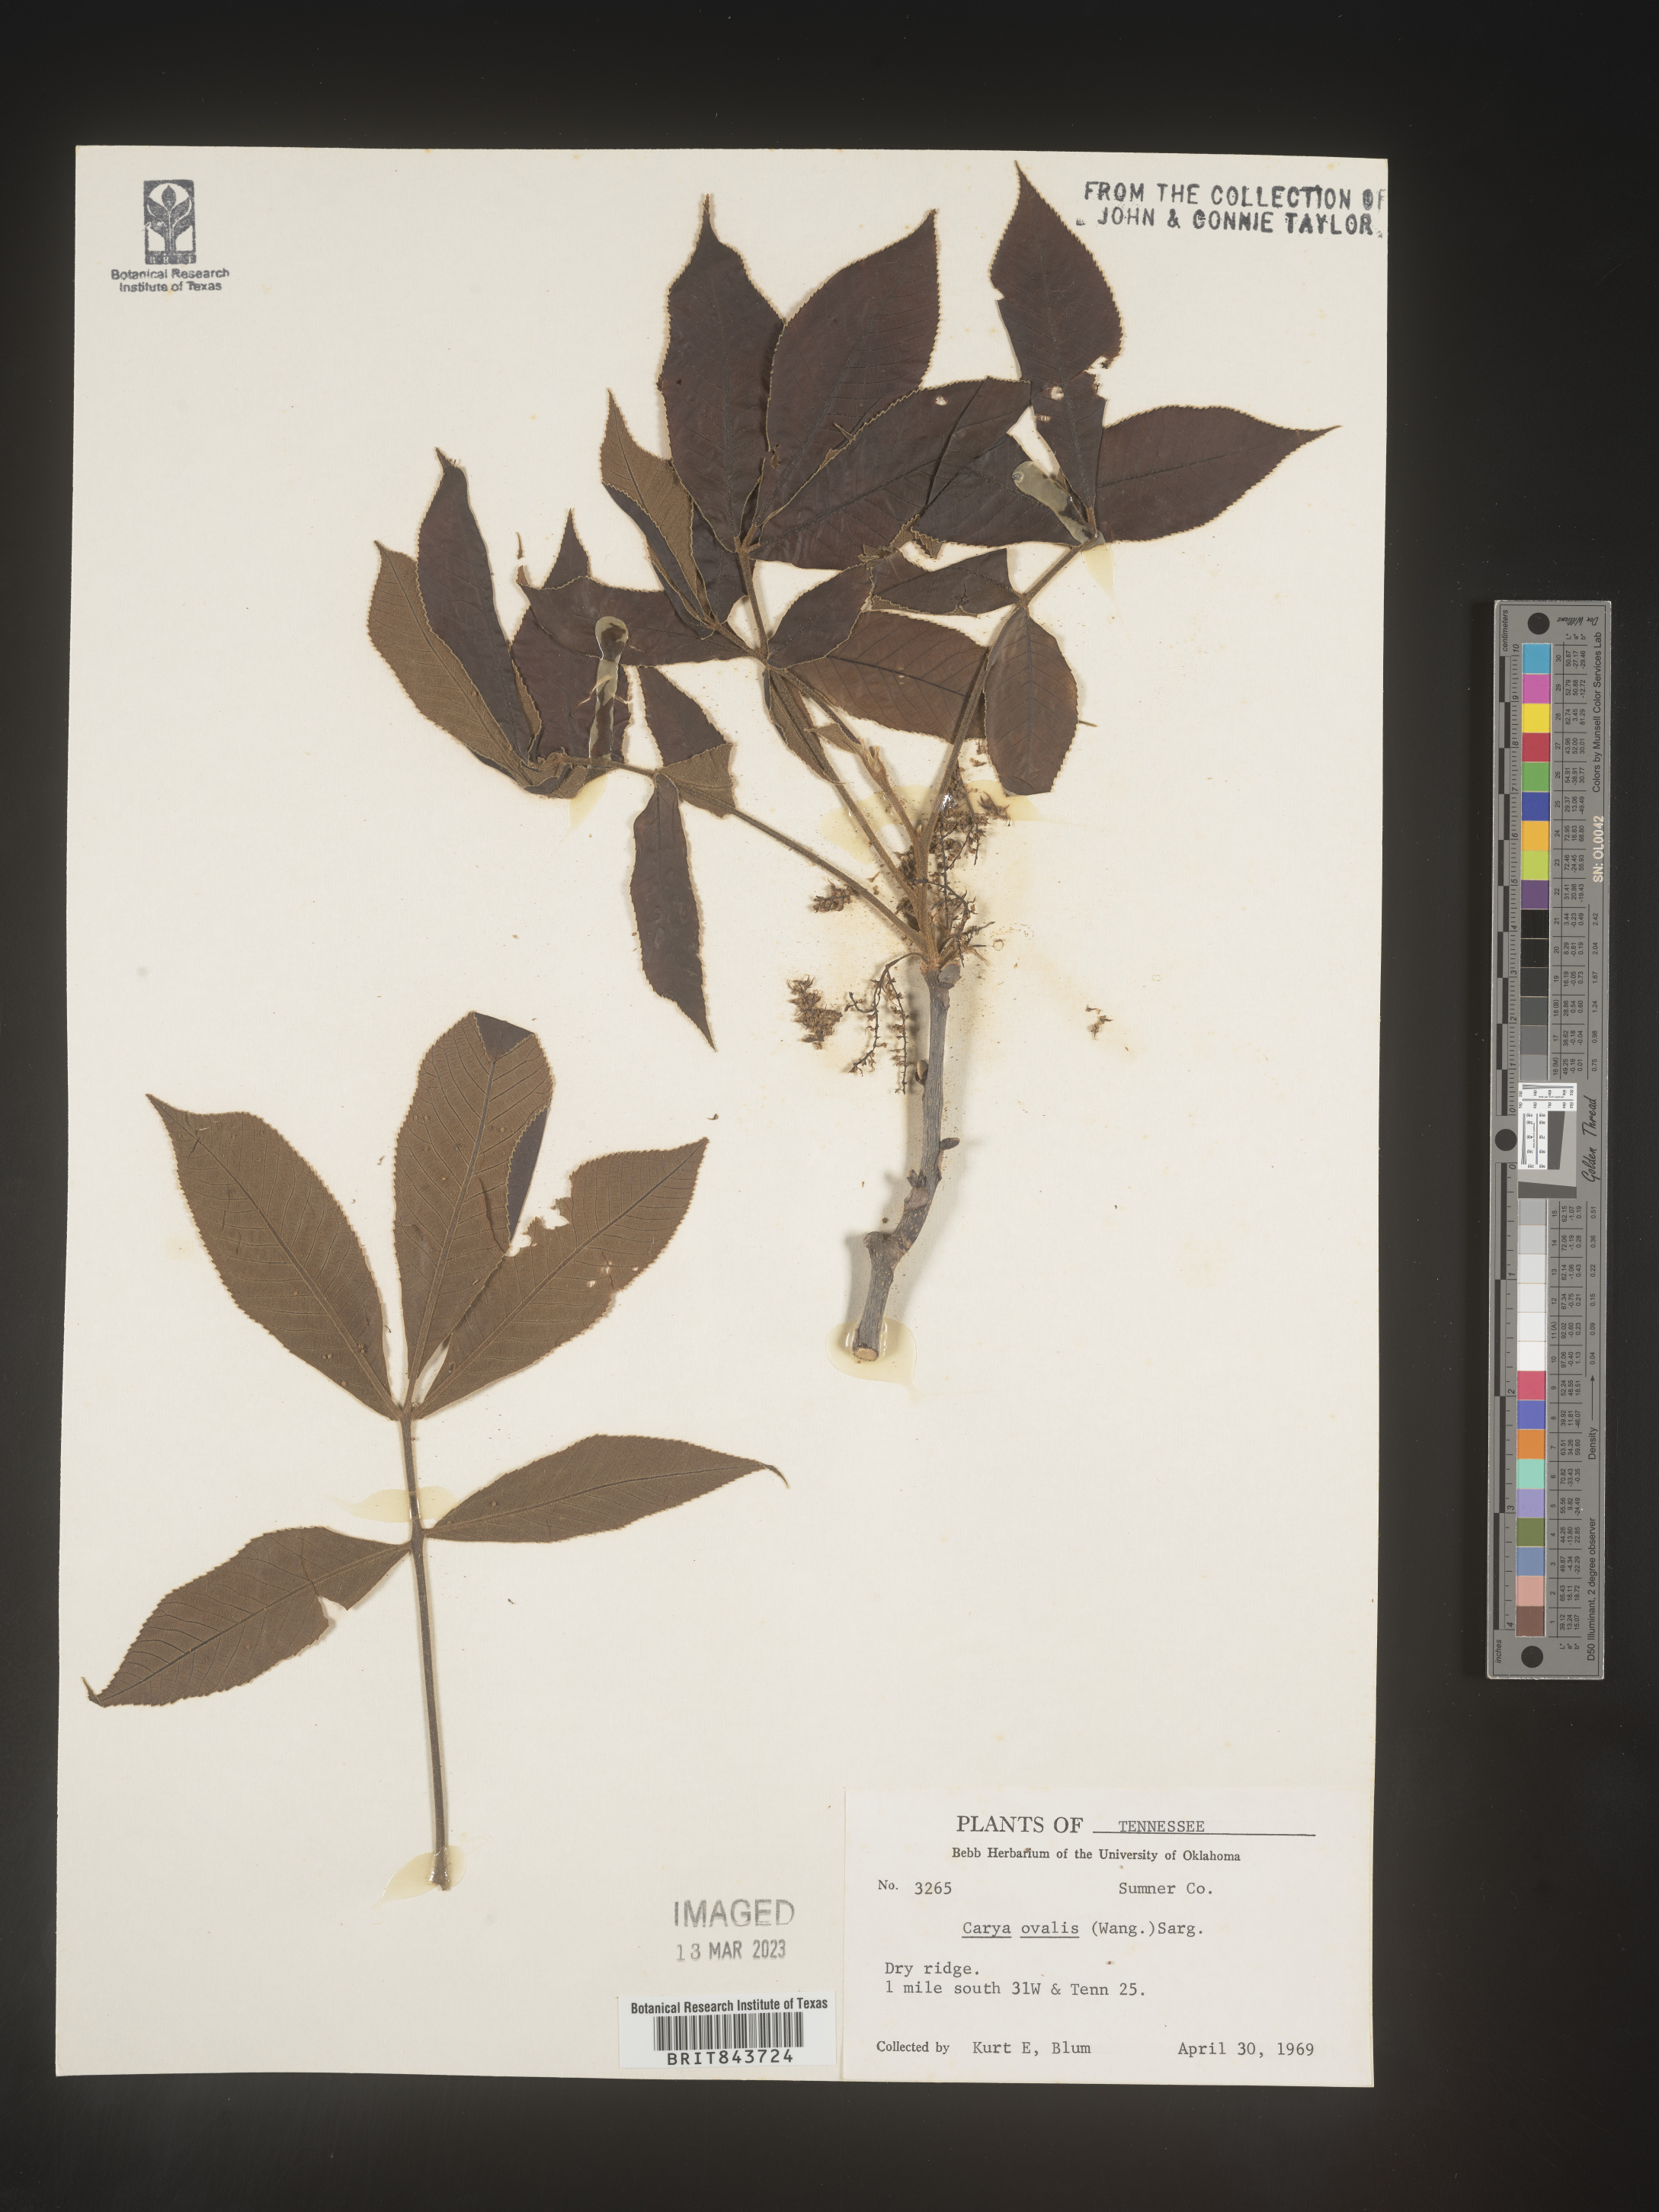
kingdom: Plantae
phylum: Tracheophyta
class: Magnoliopsida
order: Fagales
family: Juglandaceae
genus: Carya
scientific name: Carya ovalis
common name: False shagbark
